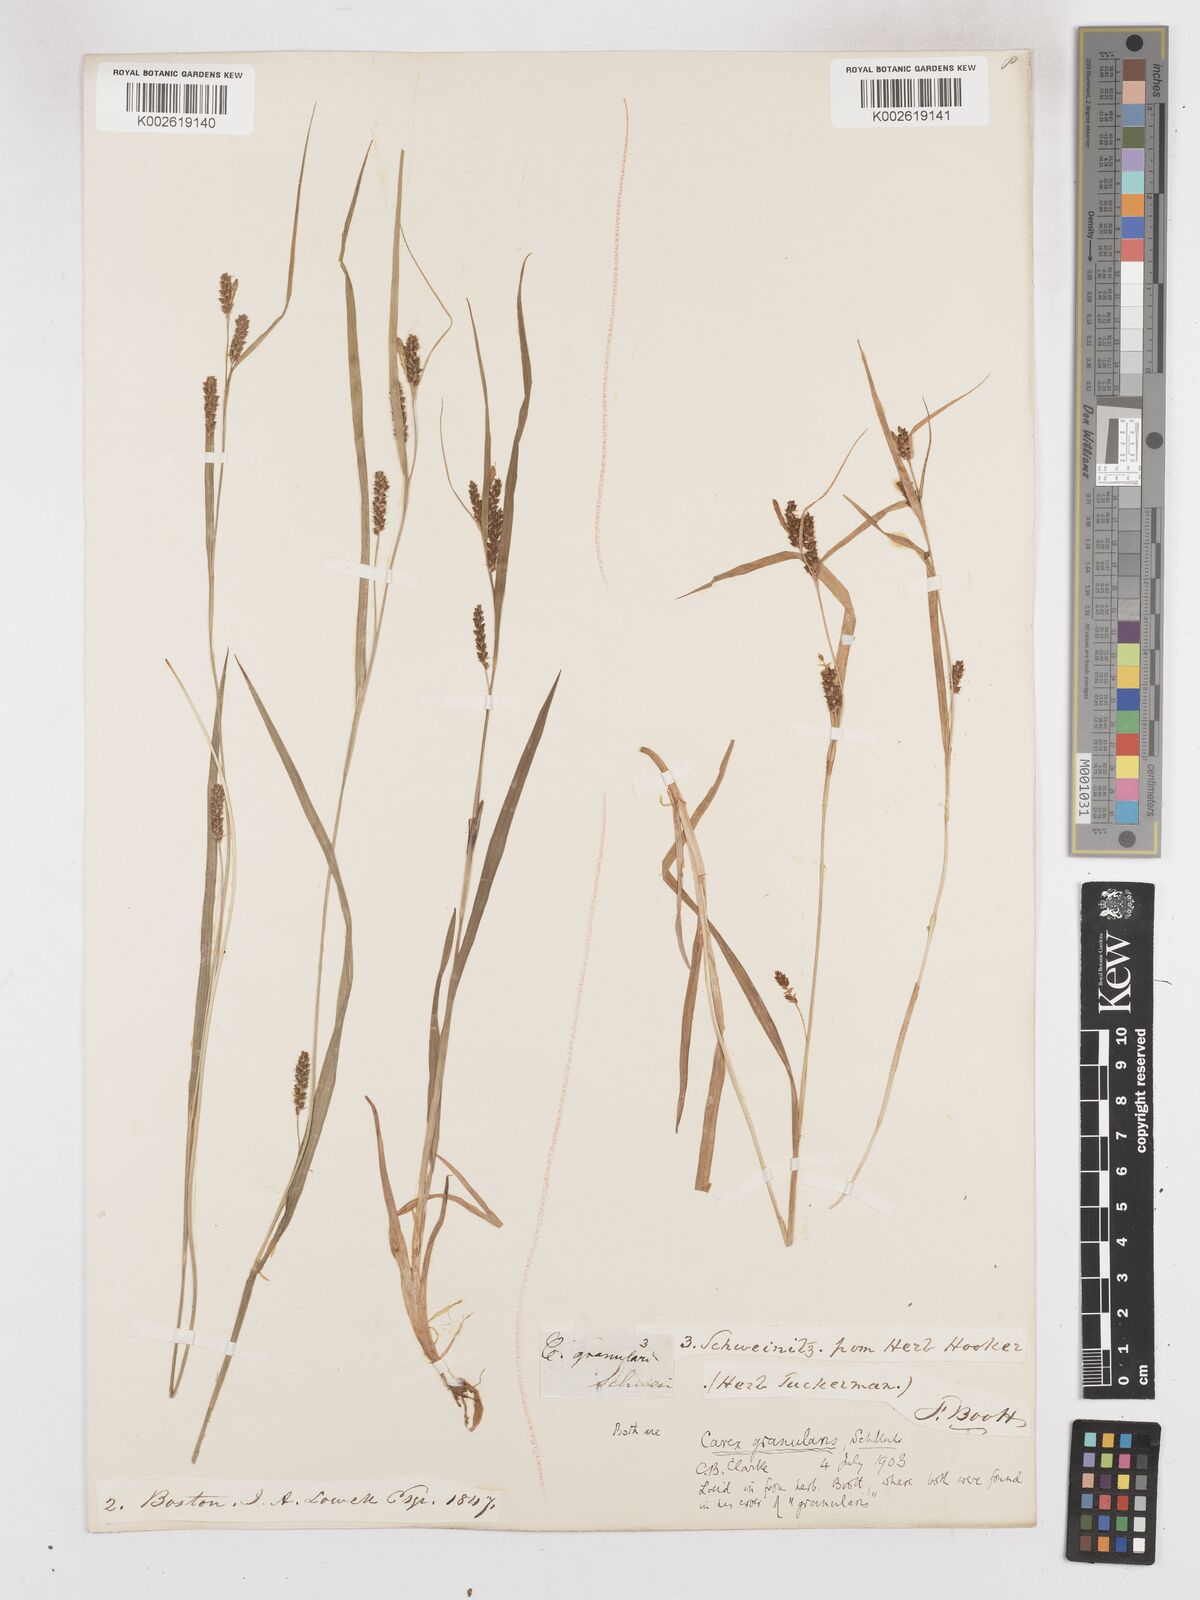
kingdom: Plantae
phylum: Tracheophyta
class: Liliopsida
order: Poales
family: Cyperaceae
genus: Carex
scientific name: Carex granularis
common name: Granular sedge
